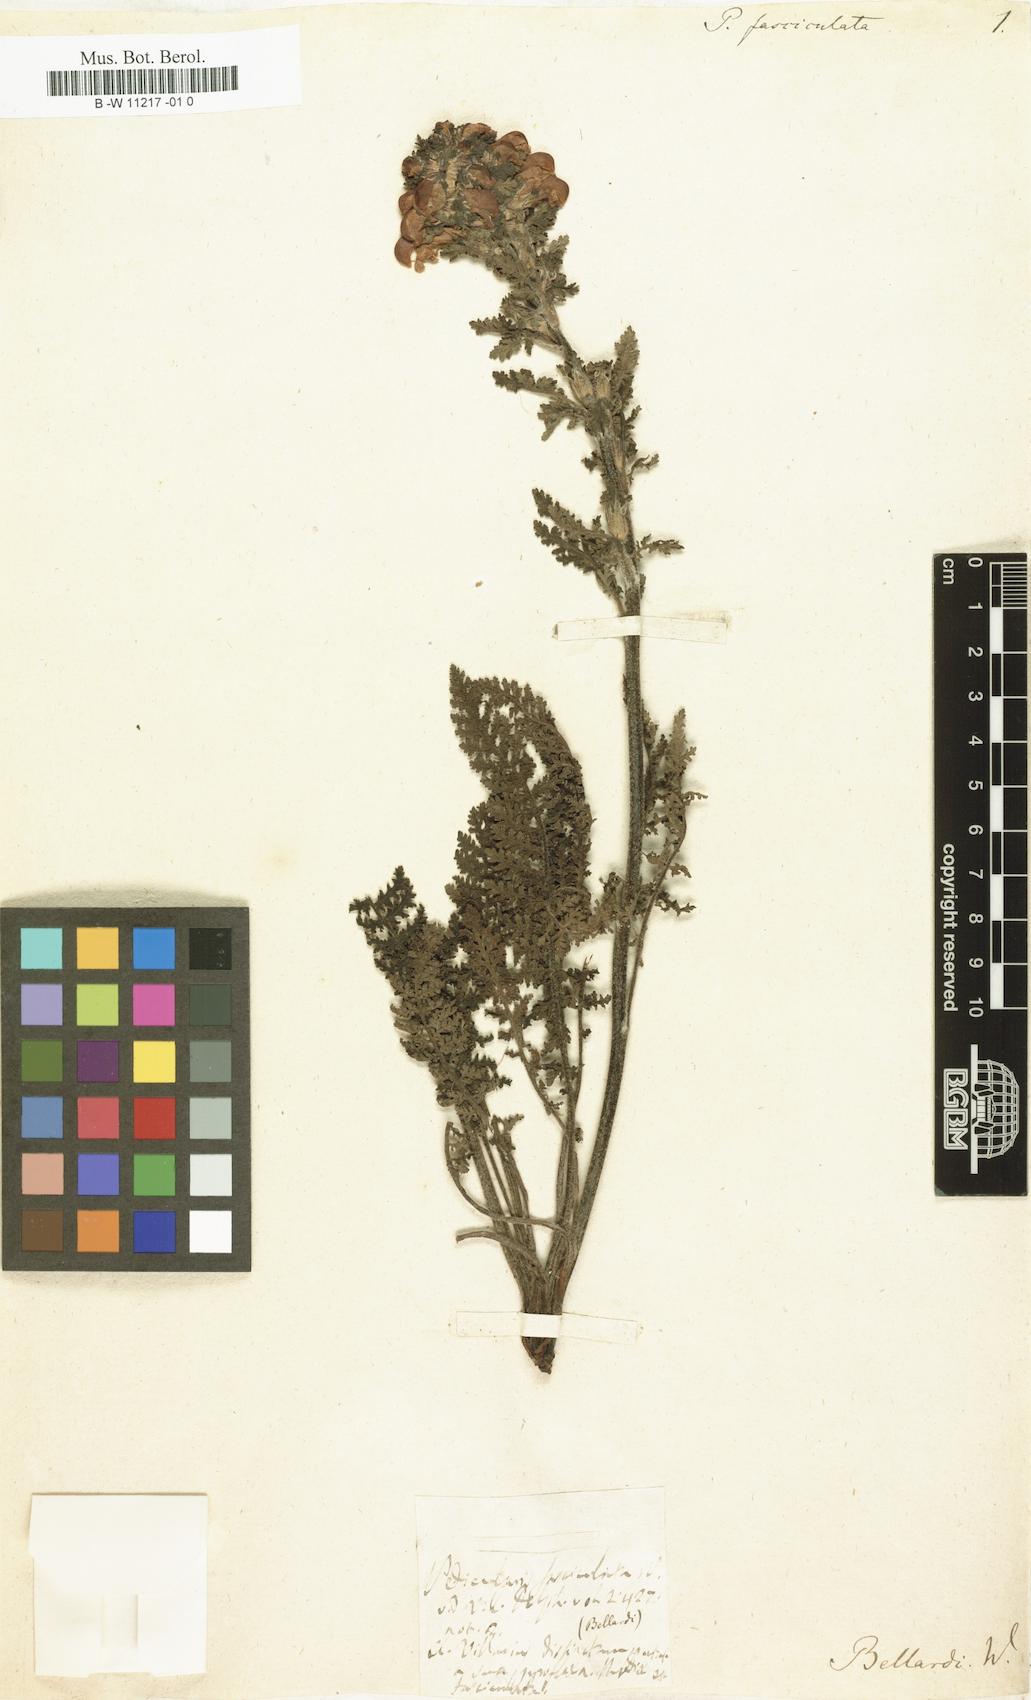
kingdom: Plantae
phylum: Tracheophyta
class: Magnoliopsida
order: Lamiales
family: Orobanchaceae
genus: Pedicularis
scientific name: Pedicularis
